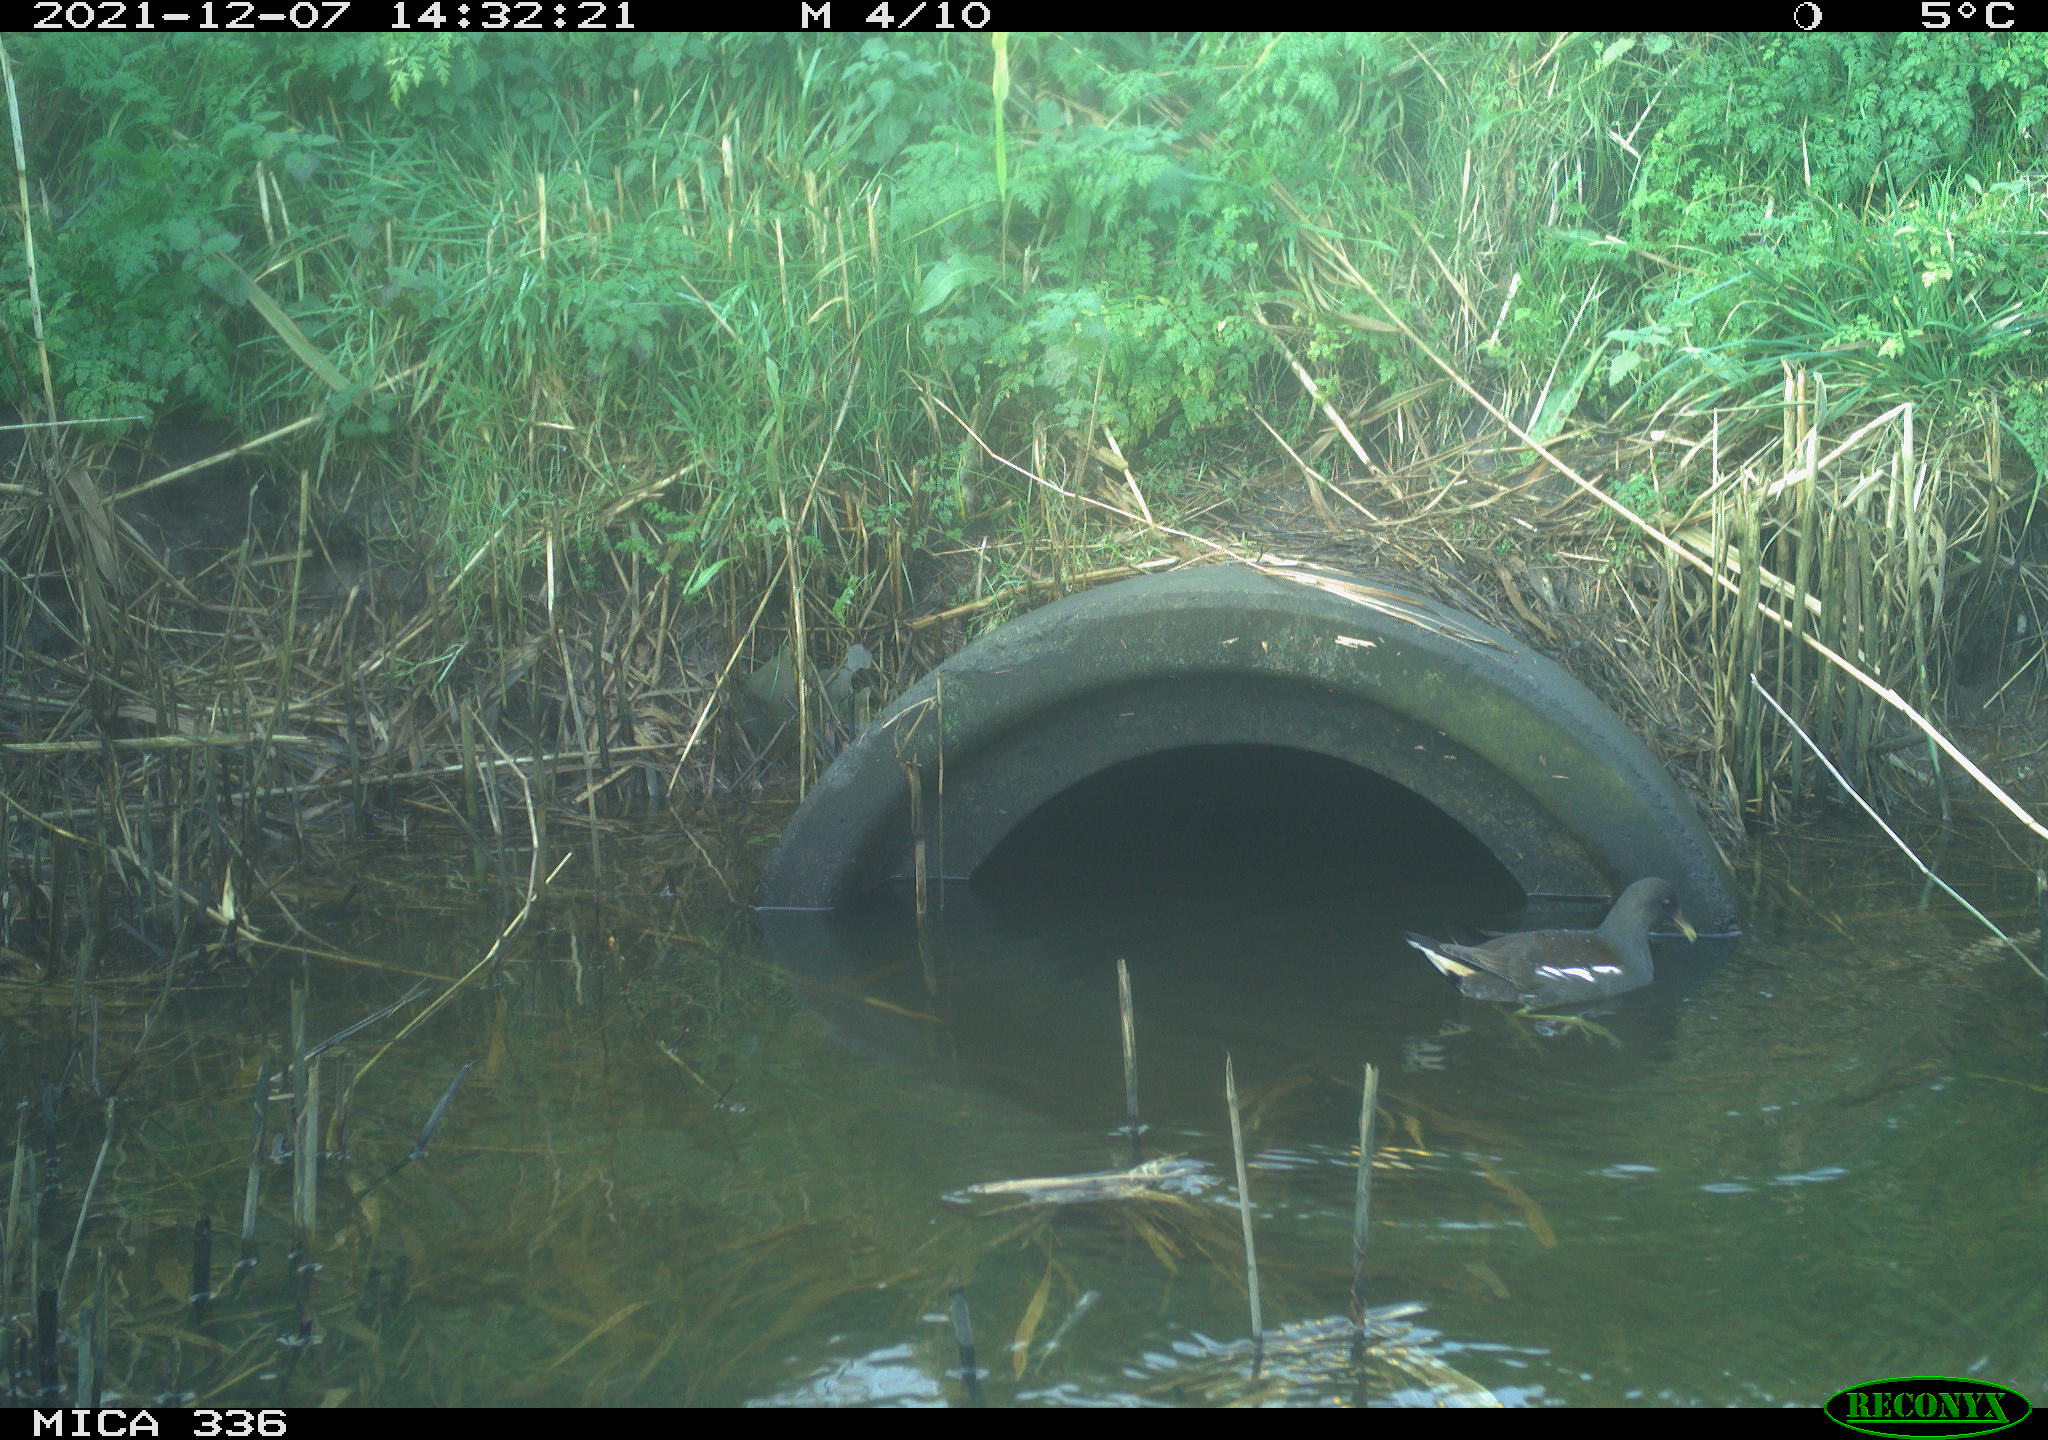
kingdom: Animalia
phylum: Chordata
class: Aves
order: Gruiformes
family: Rallidae
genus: Gallinula
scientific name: Gallinula chloropus
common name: Common moorhen
